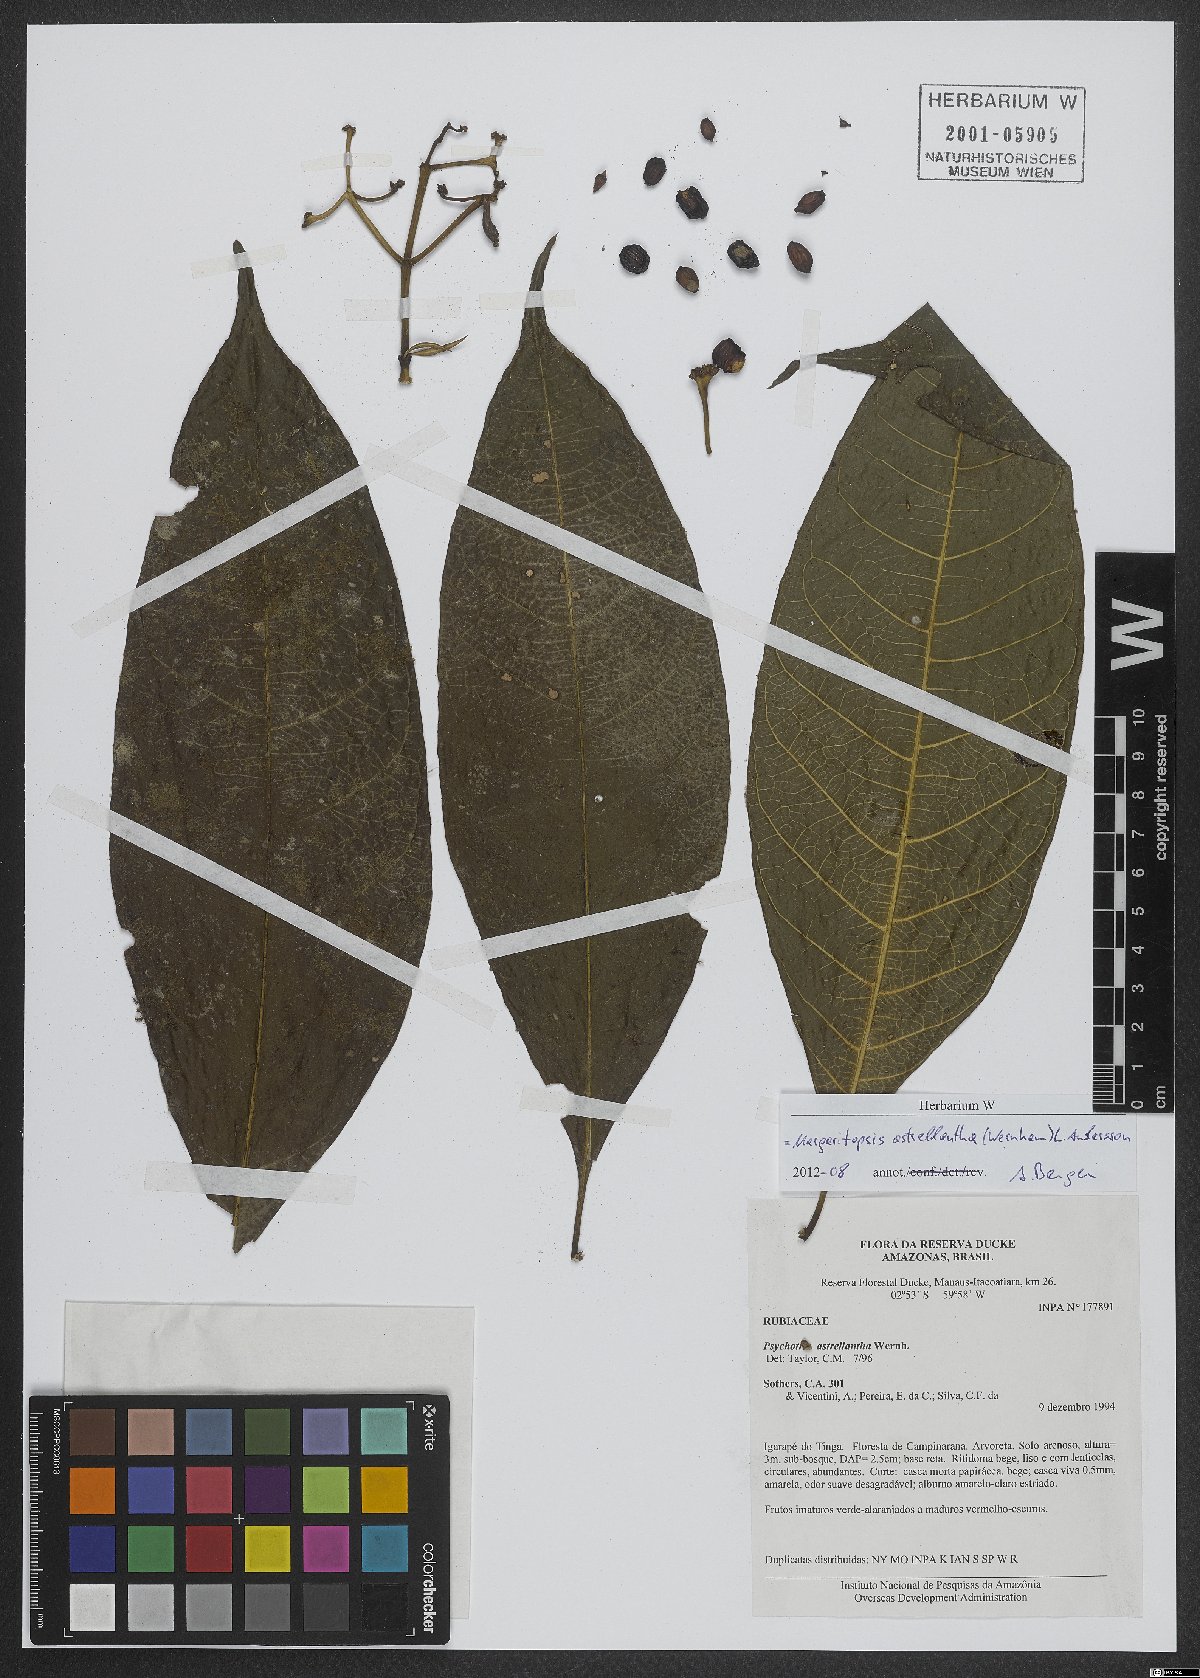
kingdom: Plantae
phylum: Tracheophyta
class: Magnoliopsida
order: Gentianales
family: Rubiaceae
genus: Eumachia
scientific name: Eumachia astrellantha
